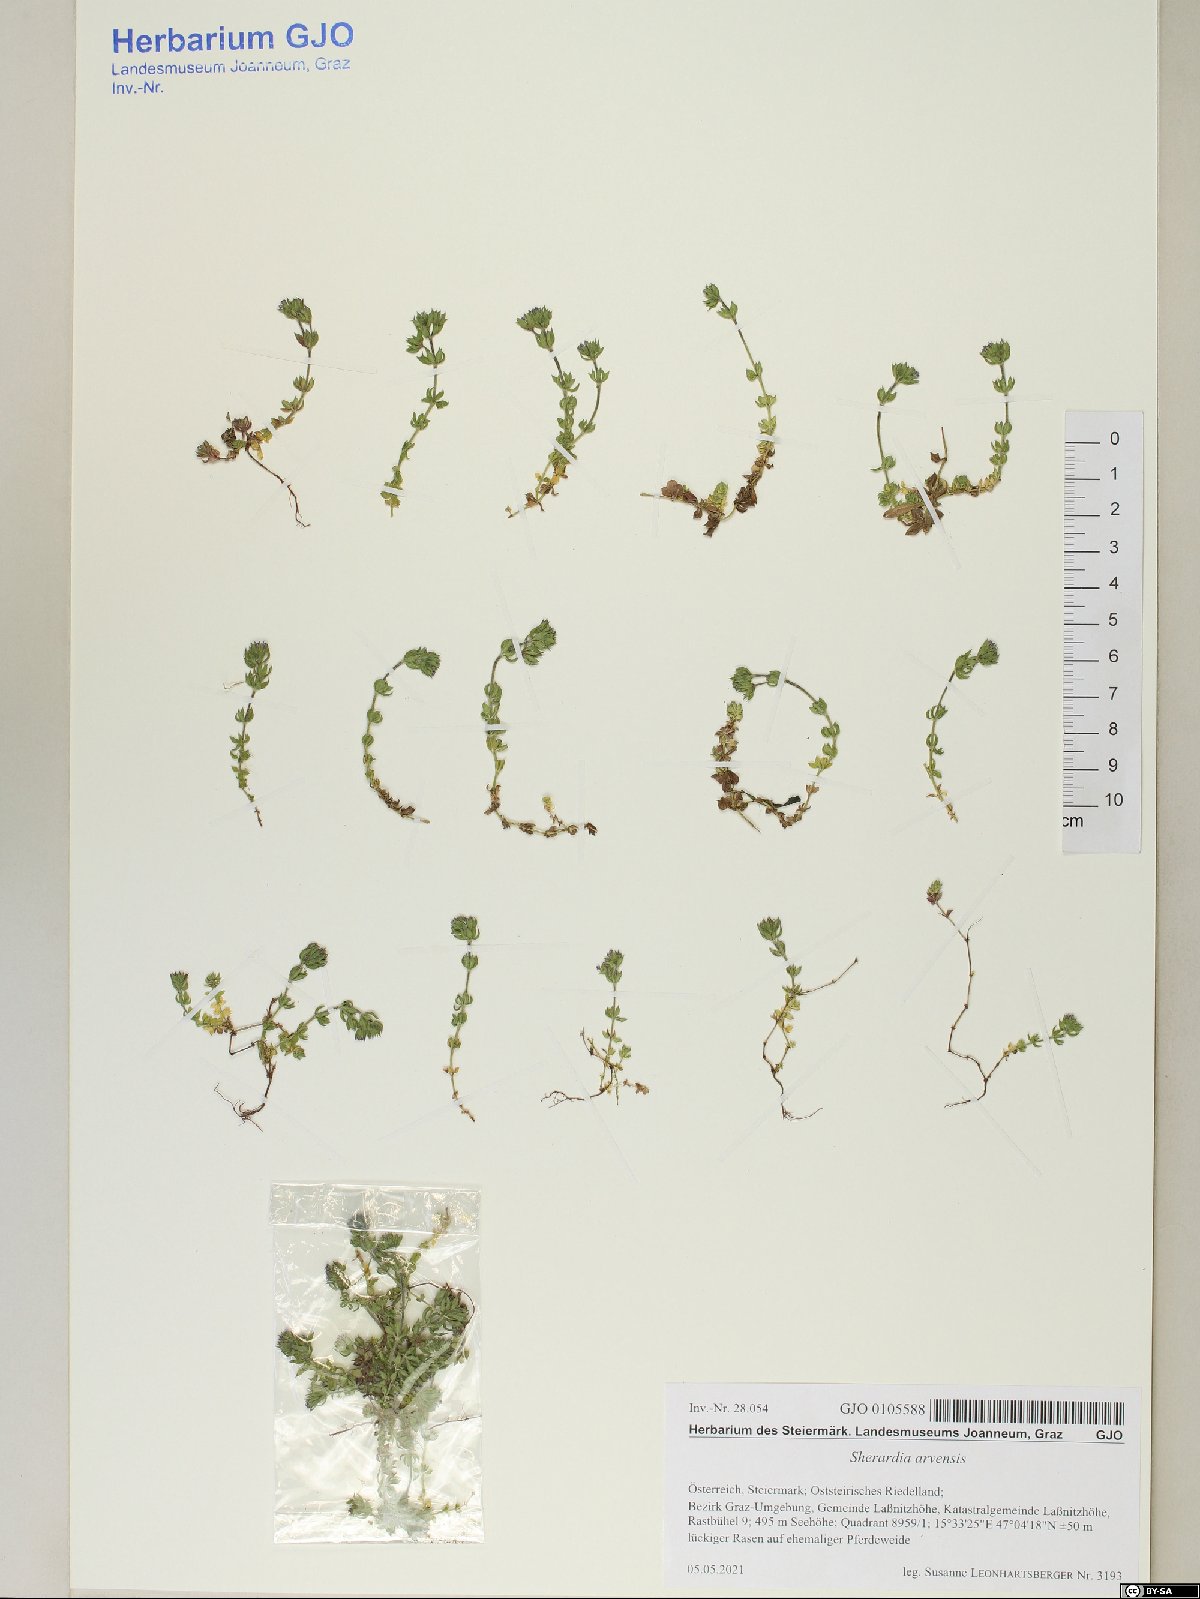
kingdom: Plantae
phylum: Tracheophyta
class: Magnoliopsida
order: Gentianales
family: Rubiaceae
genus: Sherardia
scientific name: Sherardia arvensis
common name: Field madder
